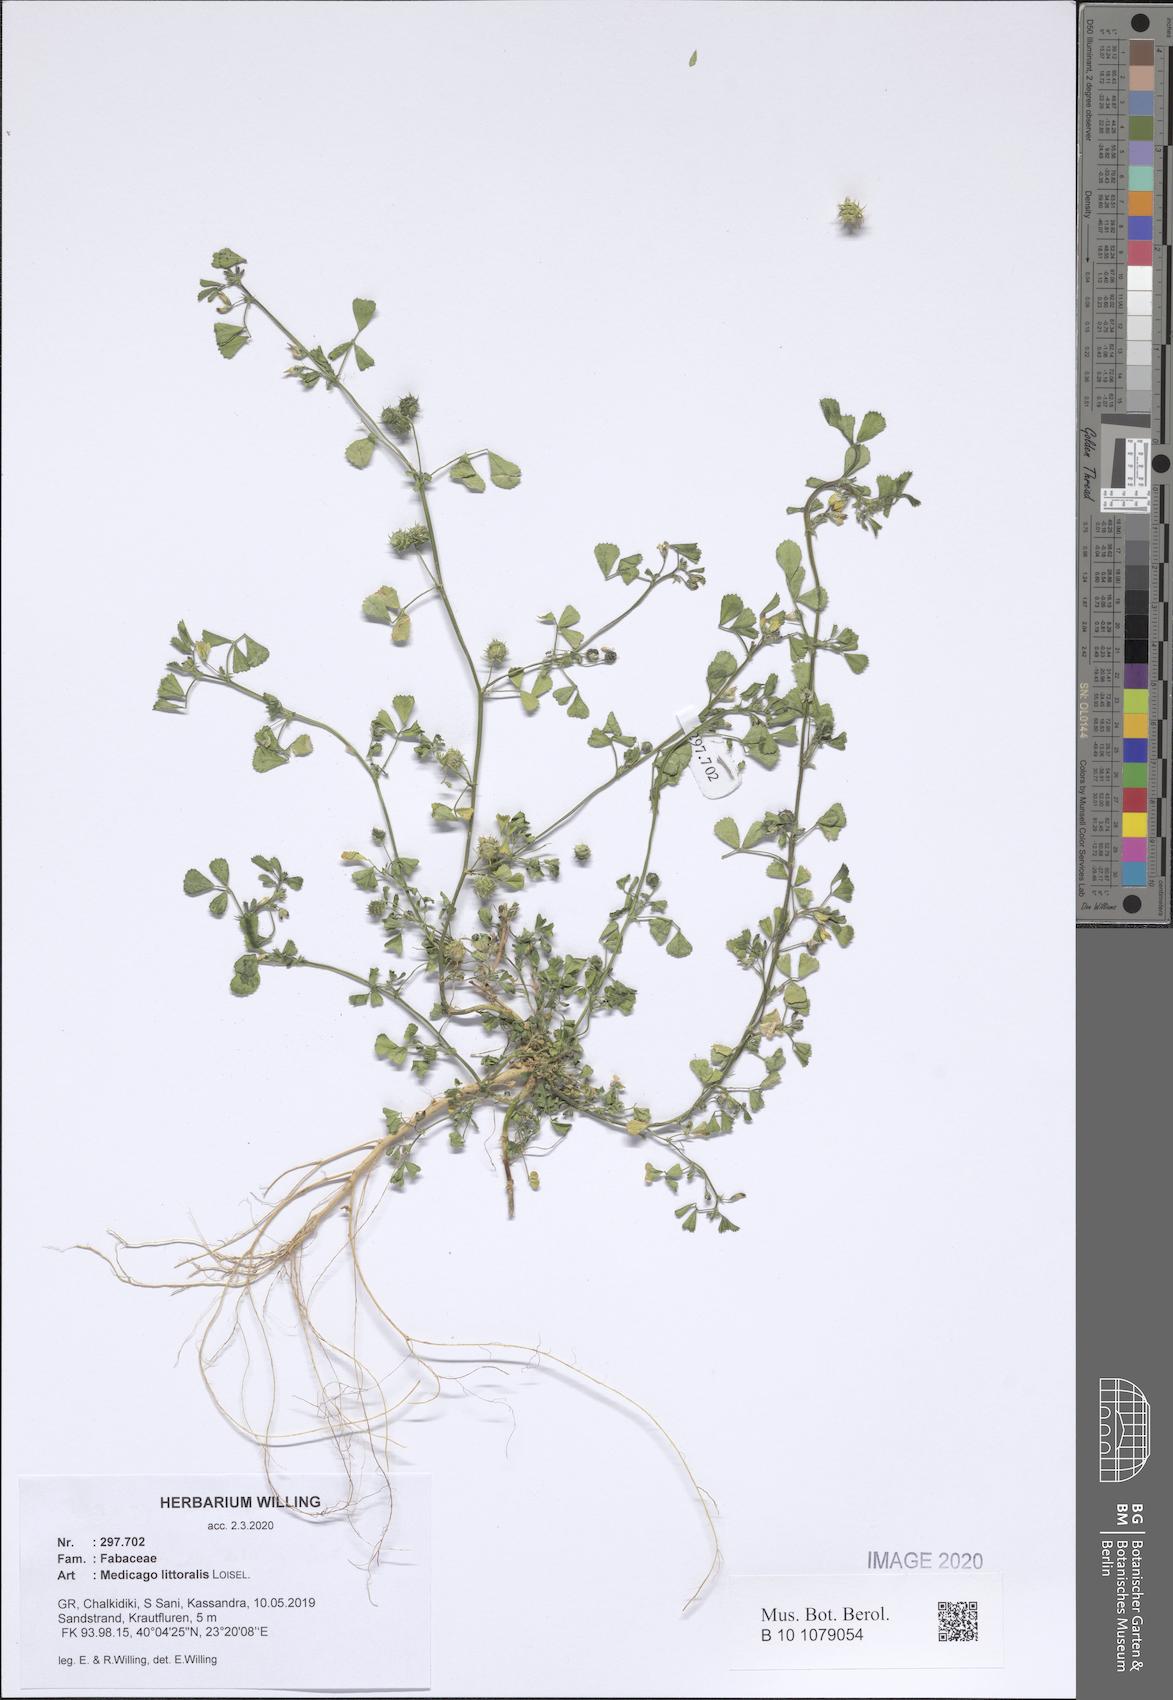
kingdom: Plantae
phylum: Tracheophyta
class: Magnoliopsida
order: Fabales
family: Fabaceae
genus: Medicago
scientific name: Medicago littoralis
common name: Shore medick
